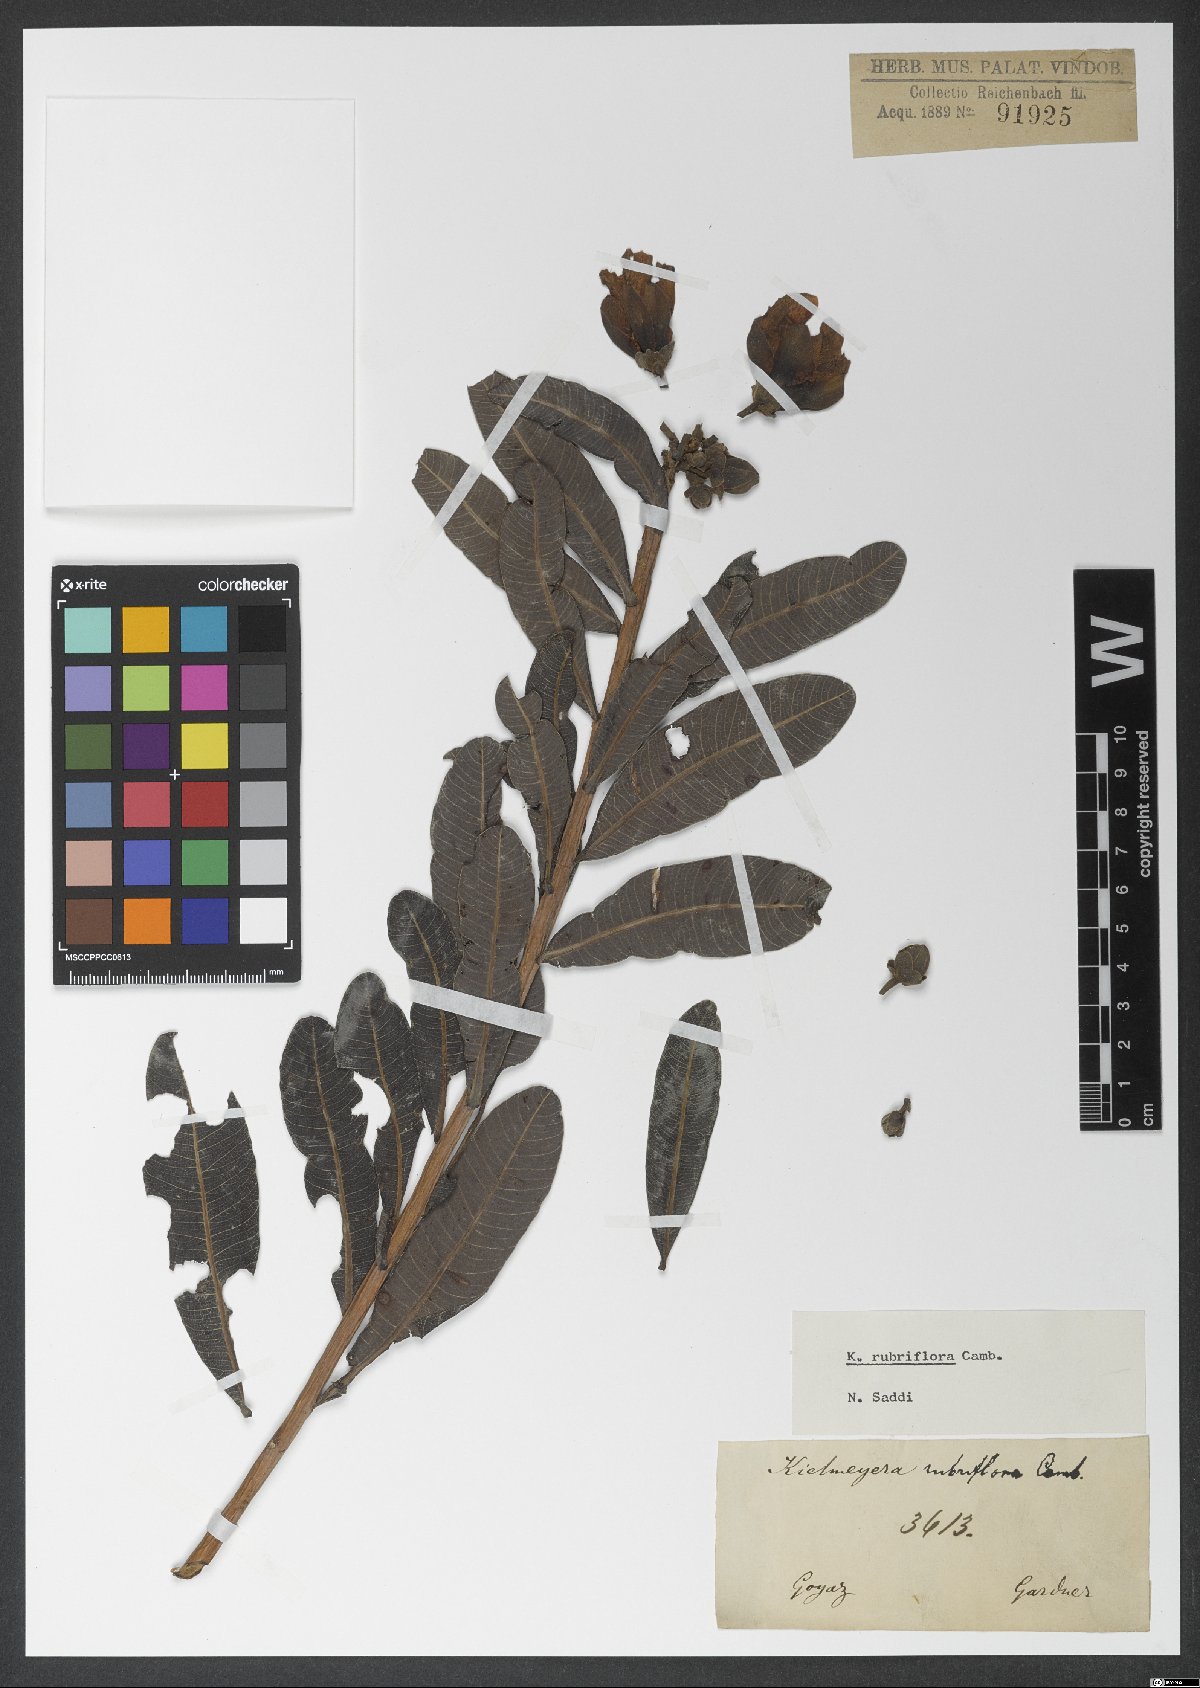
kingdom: Plantae
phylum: Tracheophyta
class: Magnoliopsida
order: Malpighiales
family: Calophyllaceae
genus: Kielmeyera
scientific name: Kielmeyera rubriflora
